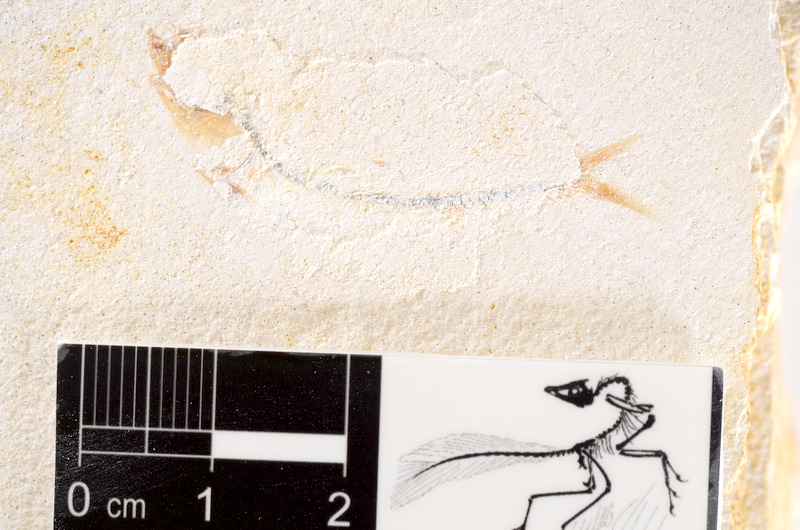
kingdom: Animalia
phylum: Chordata
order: Salmoniformes
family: Orthogonikleithridae
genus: Orthogonikleithrus
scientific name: Orthogonikleithrus hoelli
